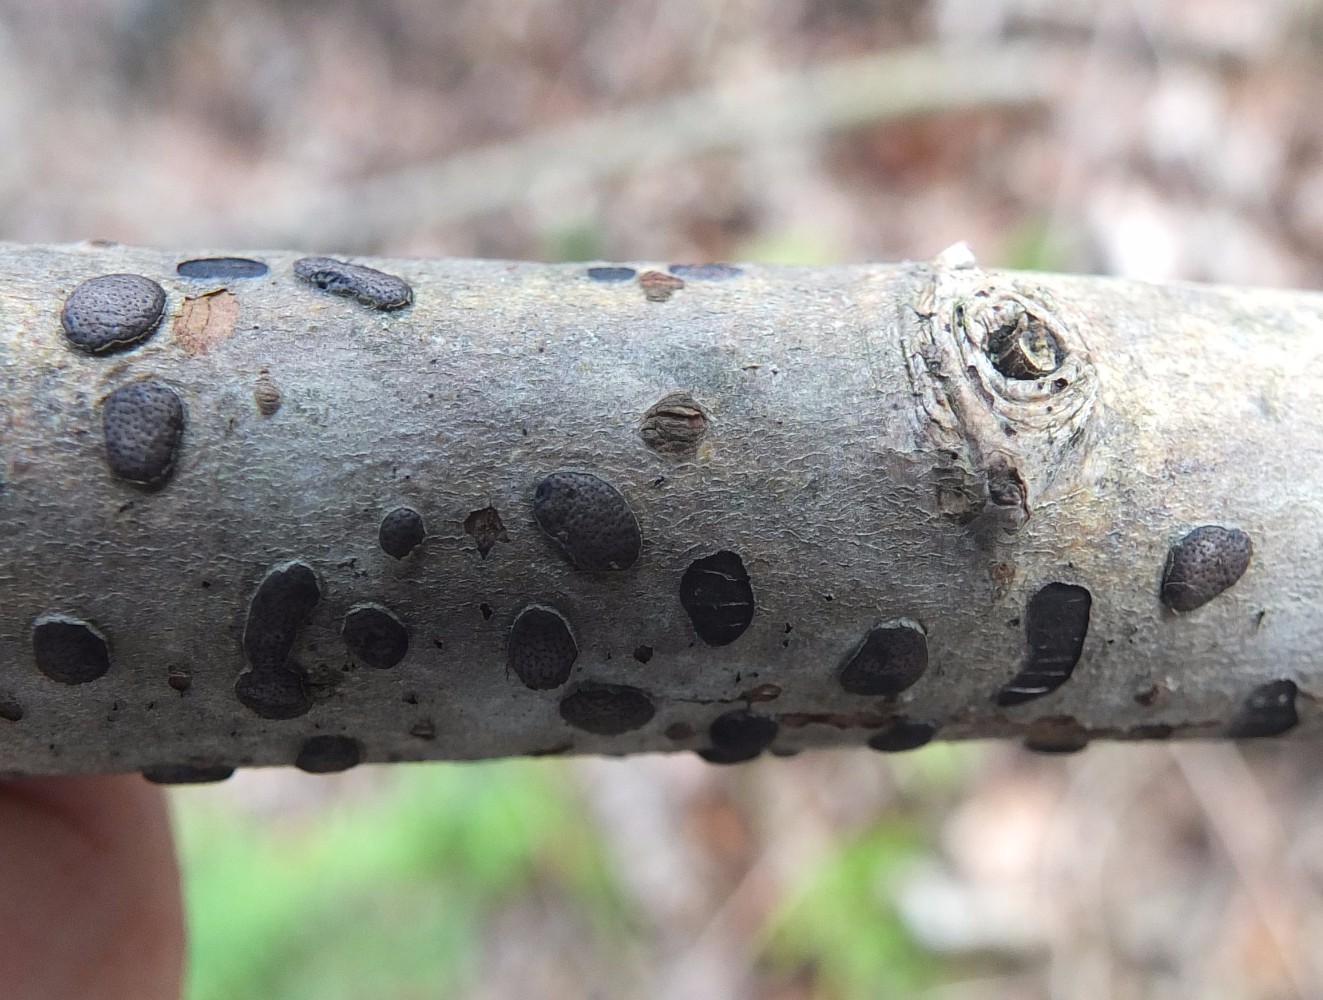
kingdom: Fungi
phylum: Ascomycota
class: Sordariomycetes
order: Xylariales
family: Diatrypaceae
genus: Diatrype
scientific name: Diatrype bullata
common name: pile-kulskorpe
